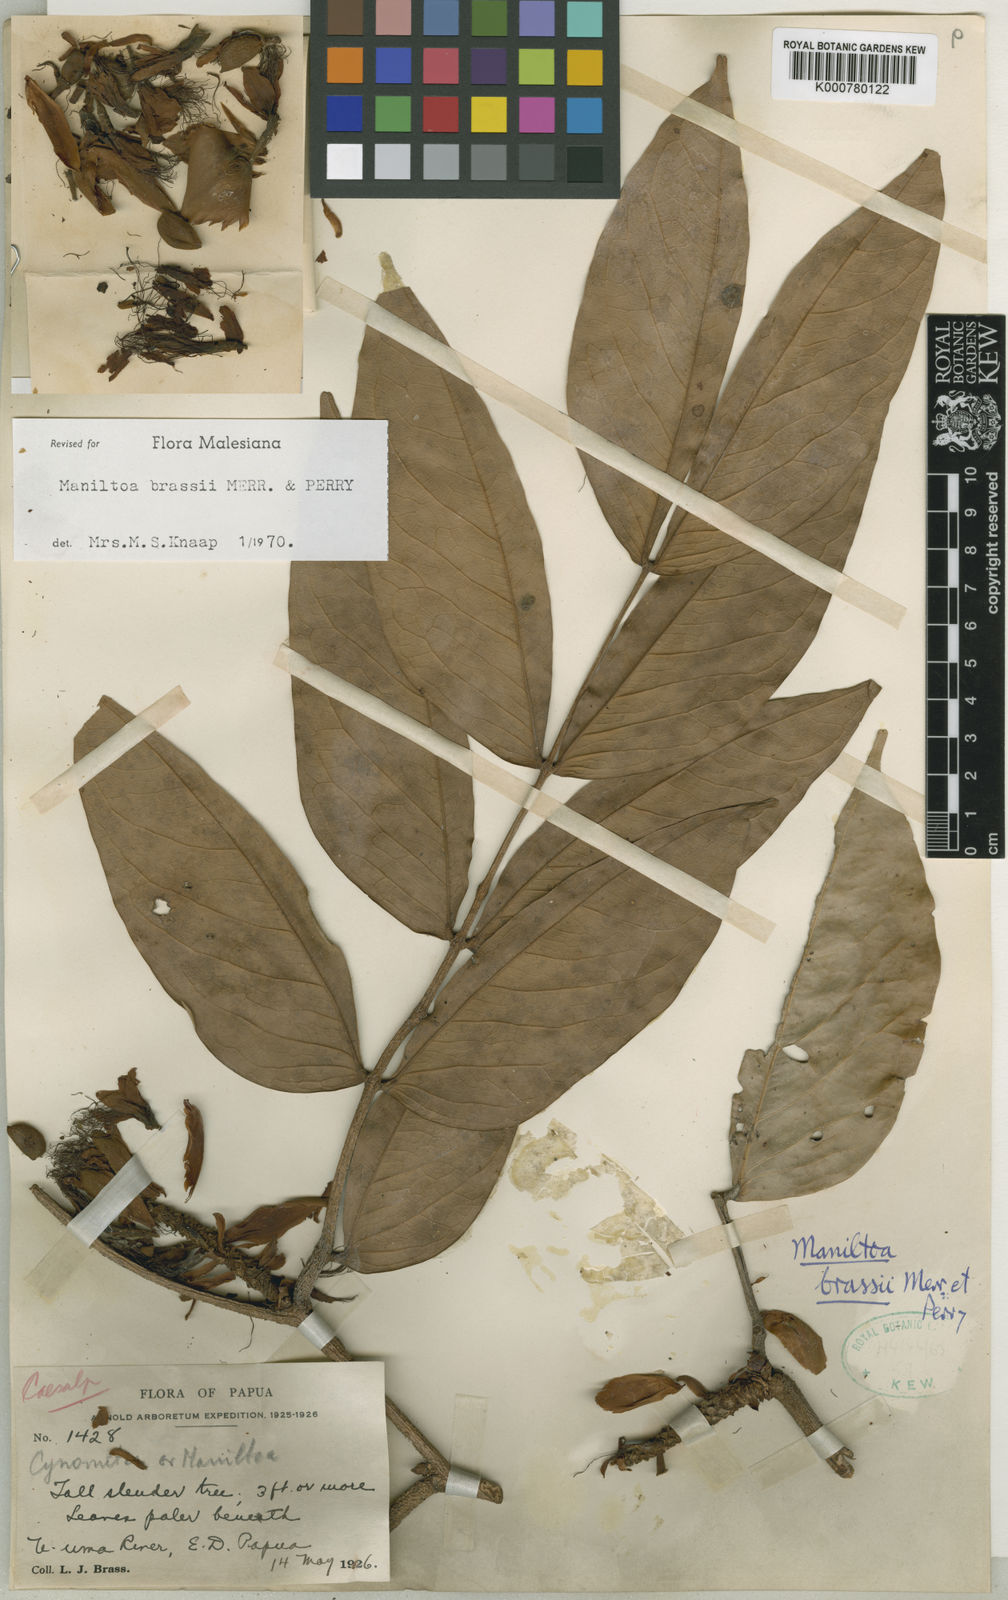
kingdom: Plantae
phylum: Tracheophyta
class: Magnoliopsida
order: Fabales
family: Fabaceae
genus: Cynometra
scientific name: Cynometra brassii
